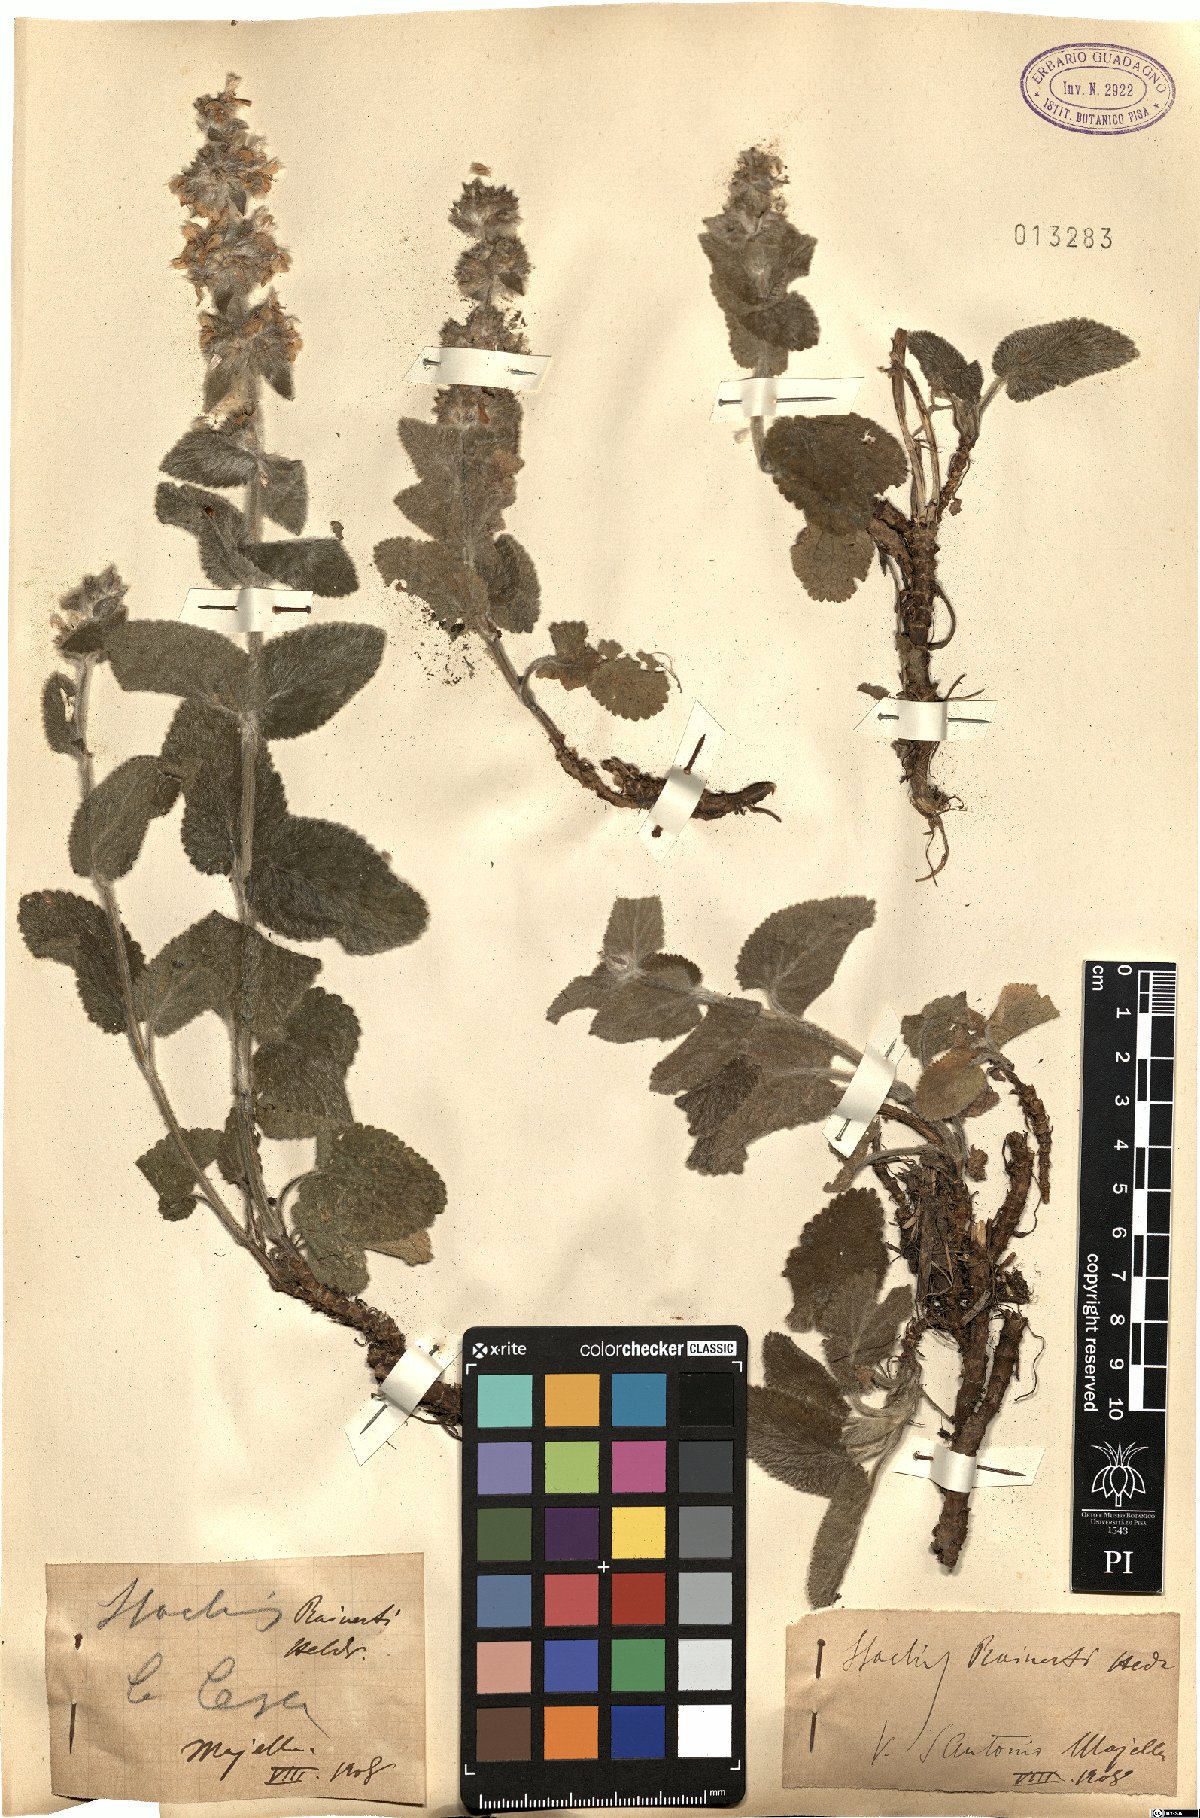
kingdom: Plantae
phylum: Tracheophyta
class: Magnoliopsida
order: Lamiales
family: Lamiaceae
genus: Stachys
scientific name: Stachys tymphaea
